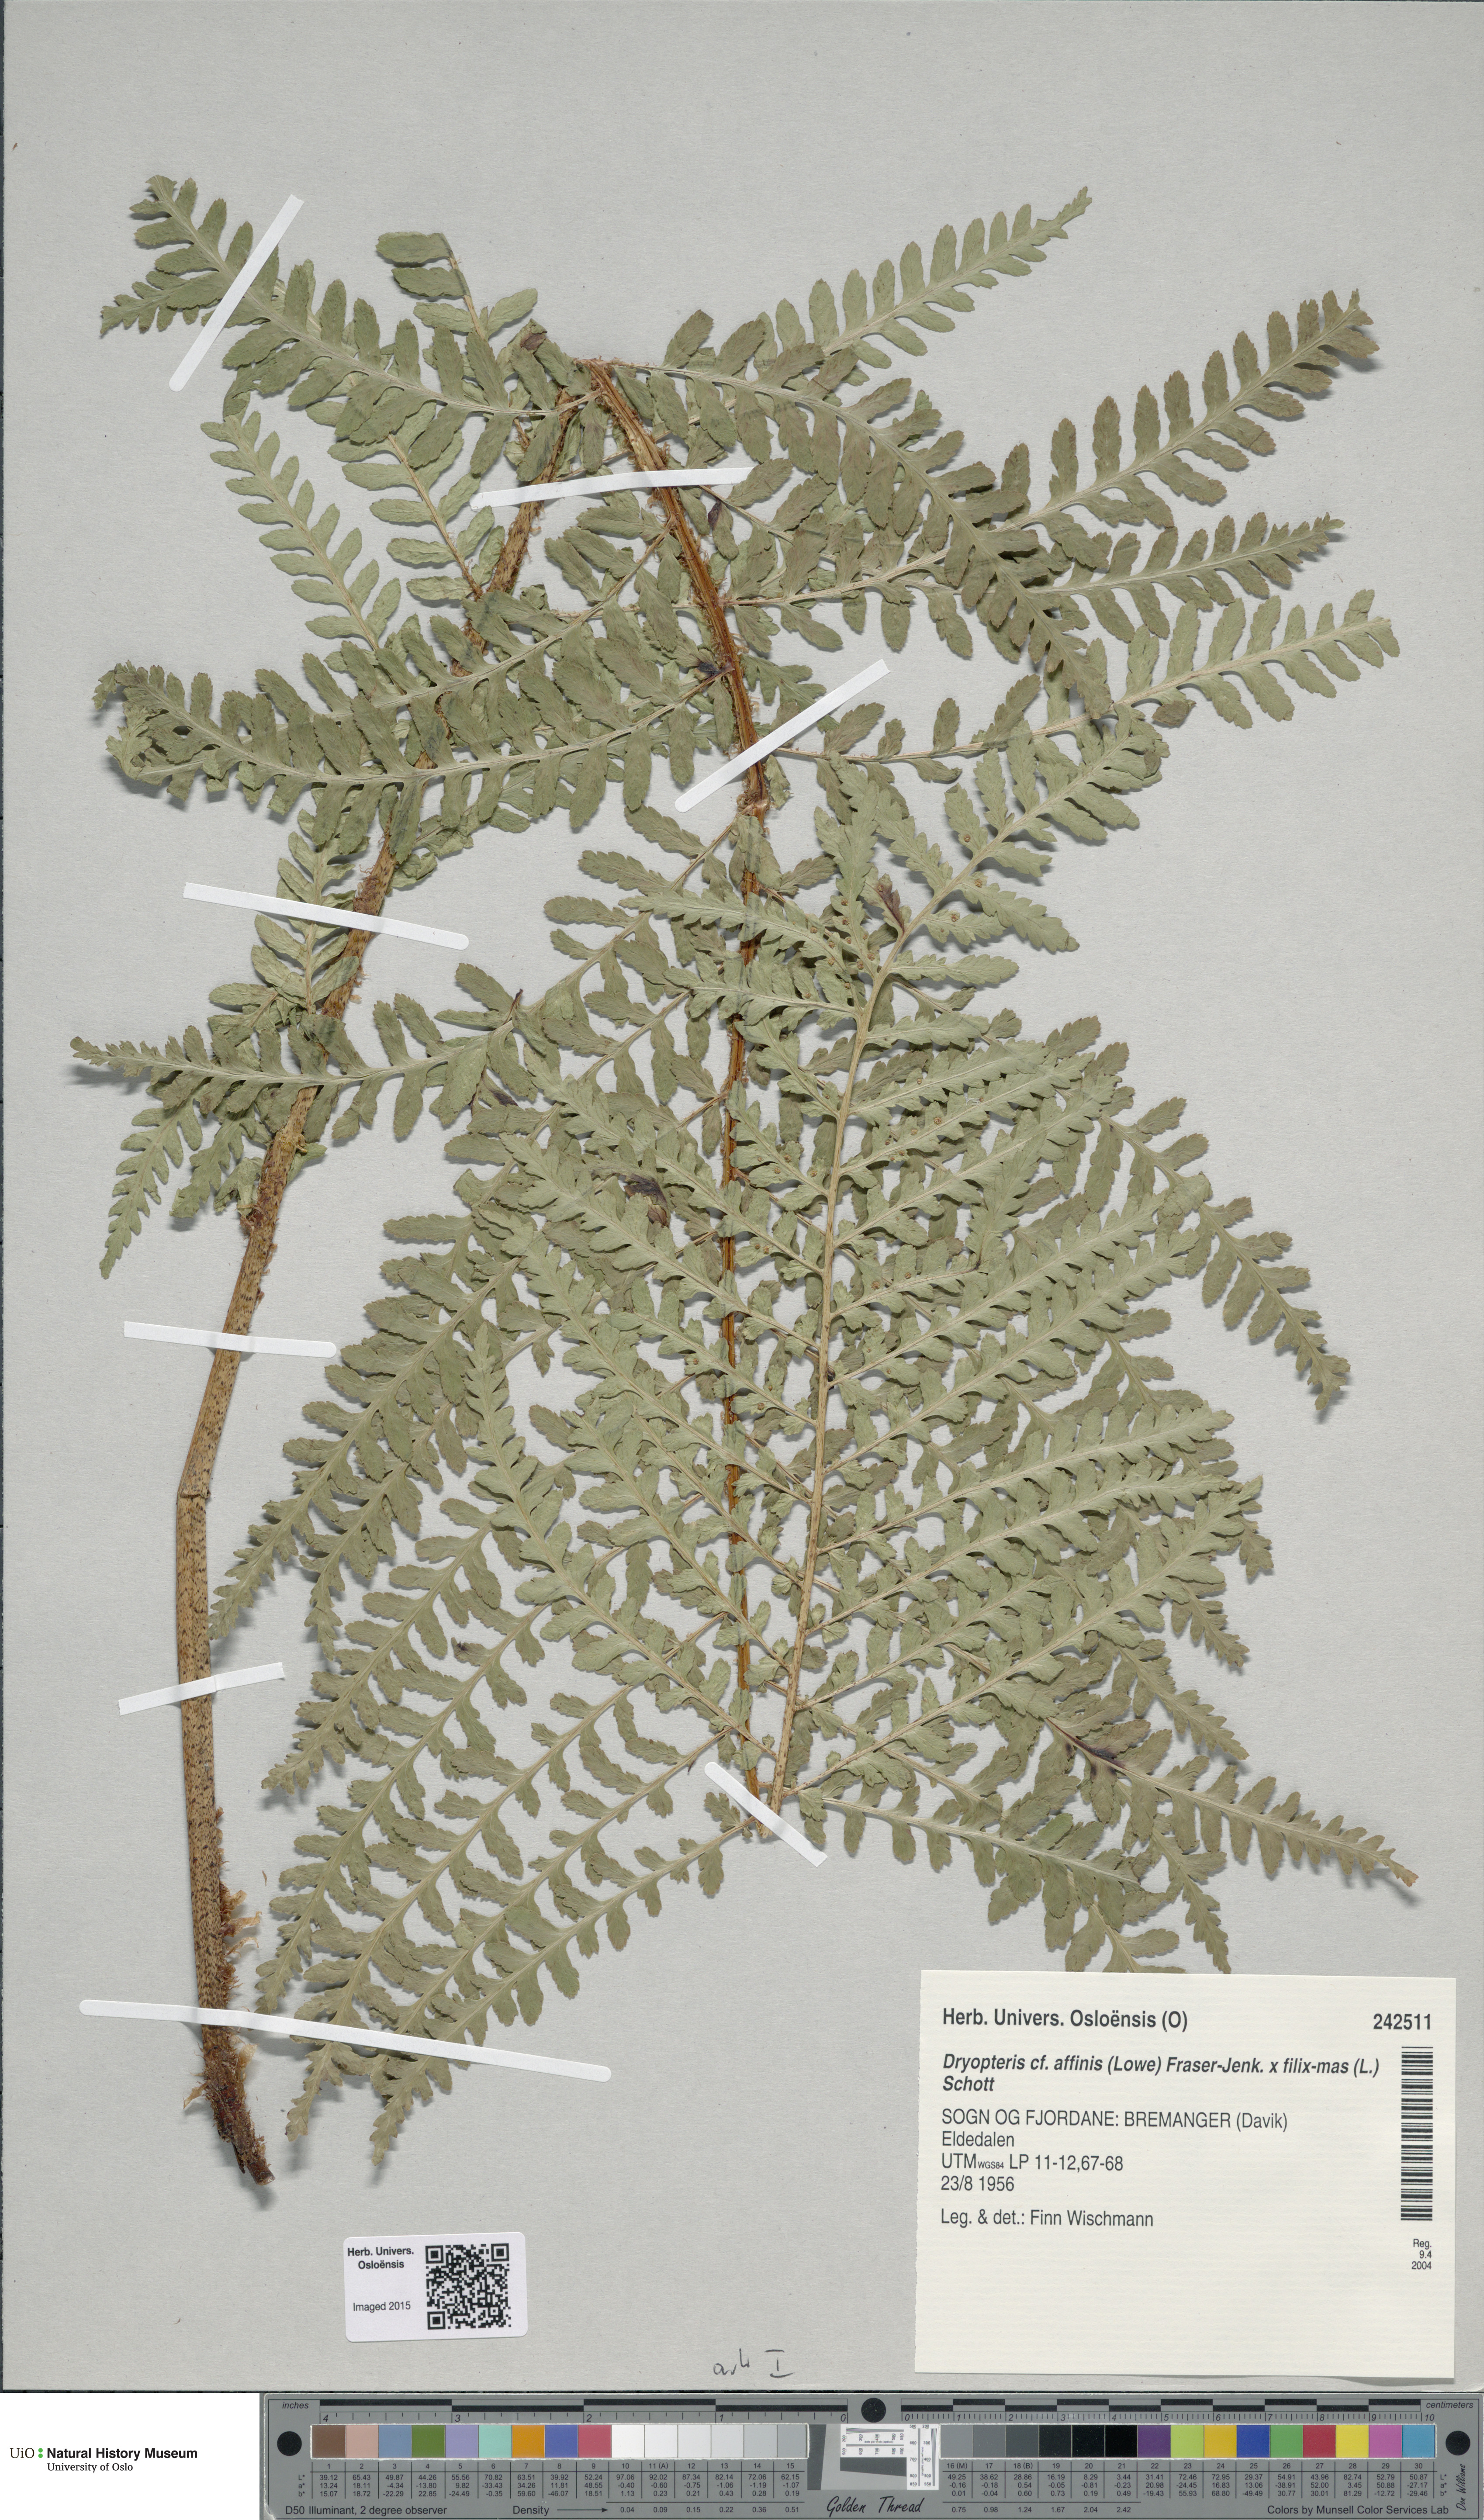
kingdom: Plantae
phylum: Tracheophyta
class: Polypodiopsida
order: Polypodiales
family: Dryopteridaceae
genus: Dryopteris
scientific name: Dryopteris
